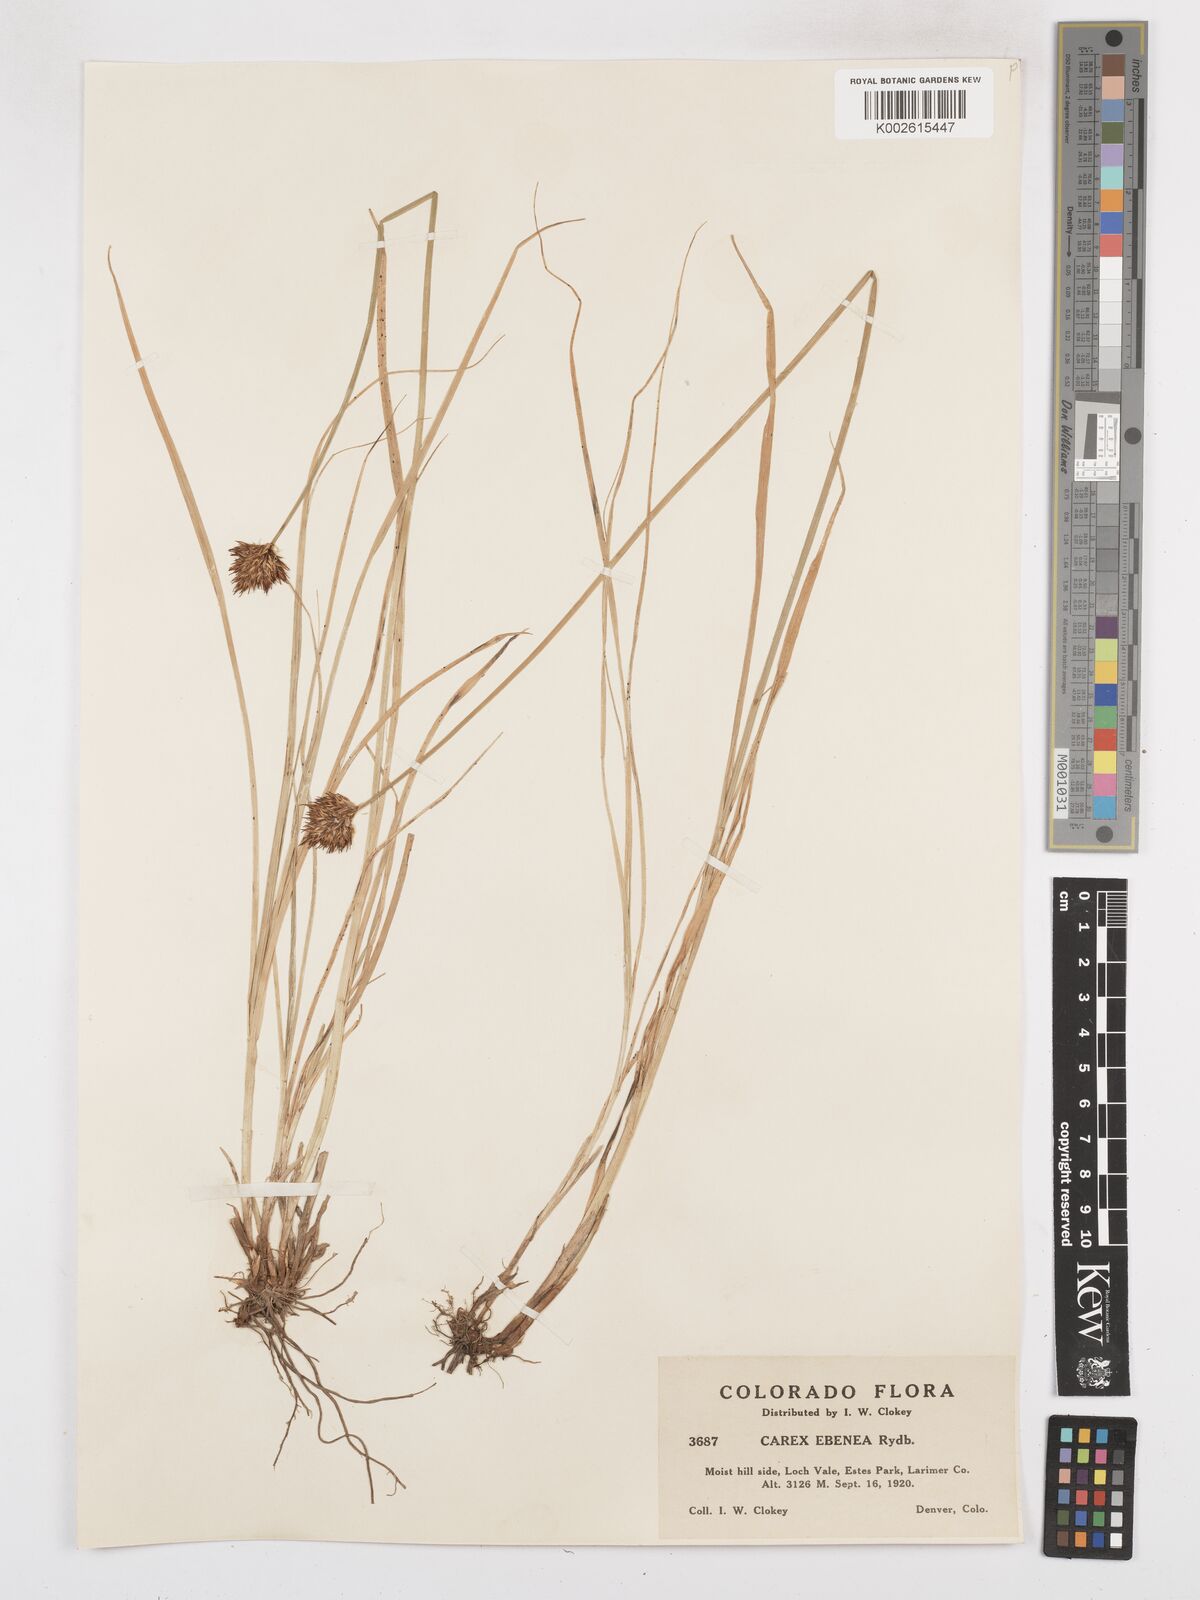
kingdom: Plantae
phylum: Tracheophyta
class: Liliopsida
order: Poales
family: Cyperaceae
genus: Carex
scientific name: Carex eburnea
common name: Bristle-leaved sedge
